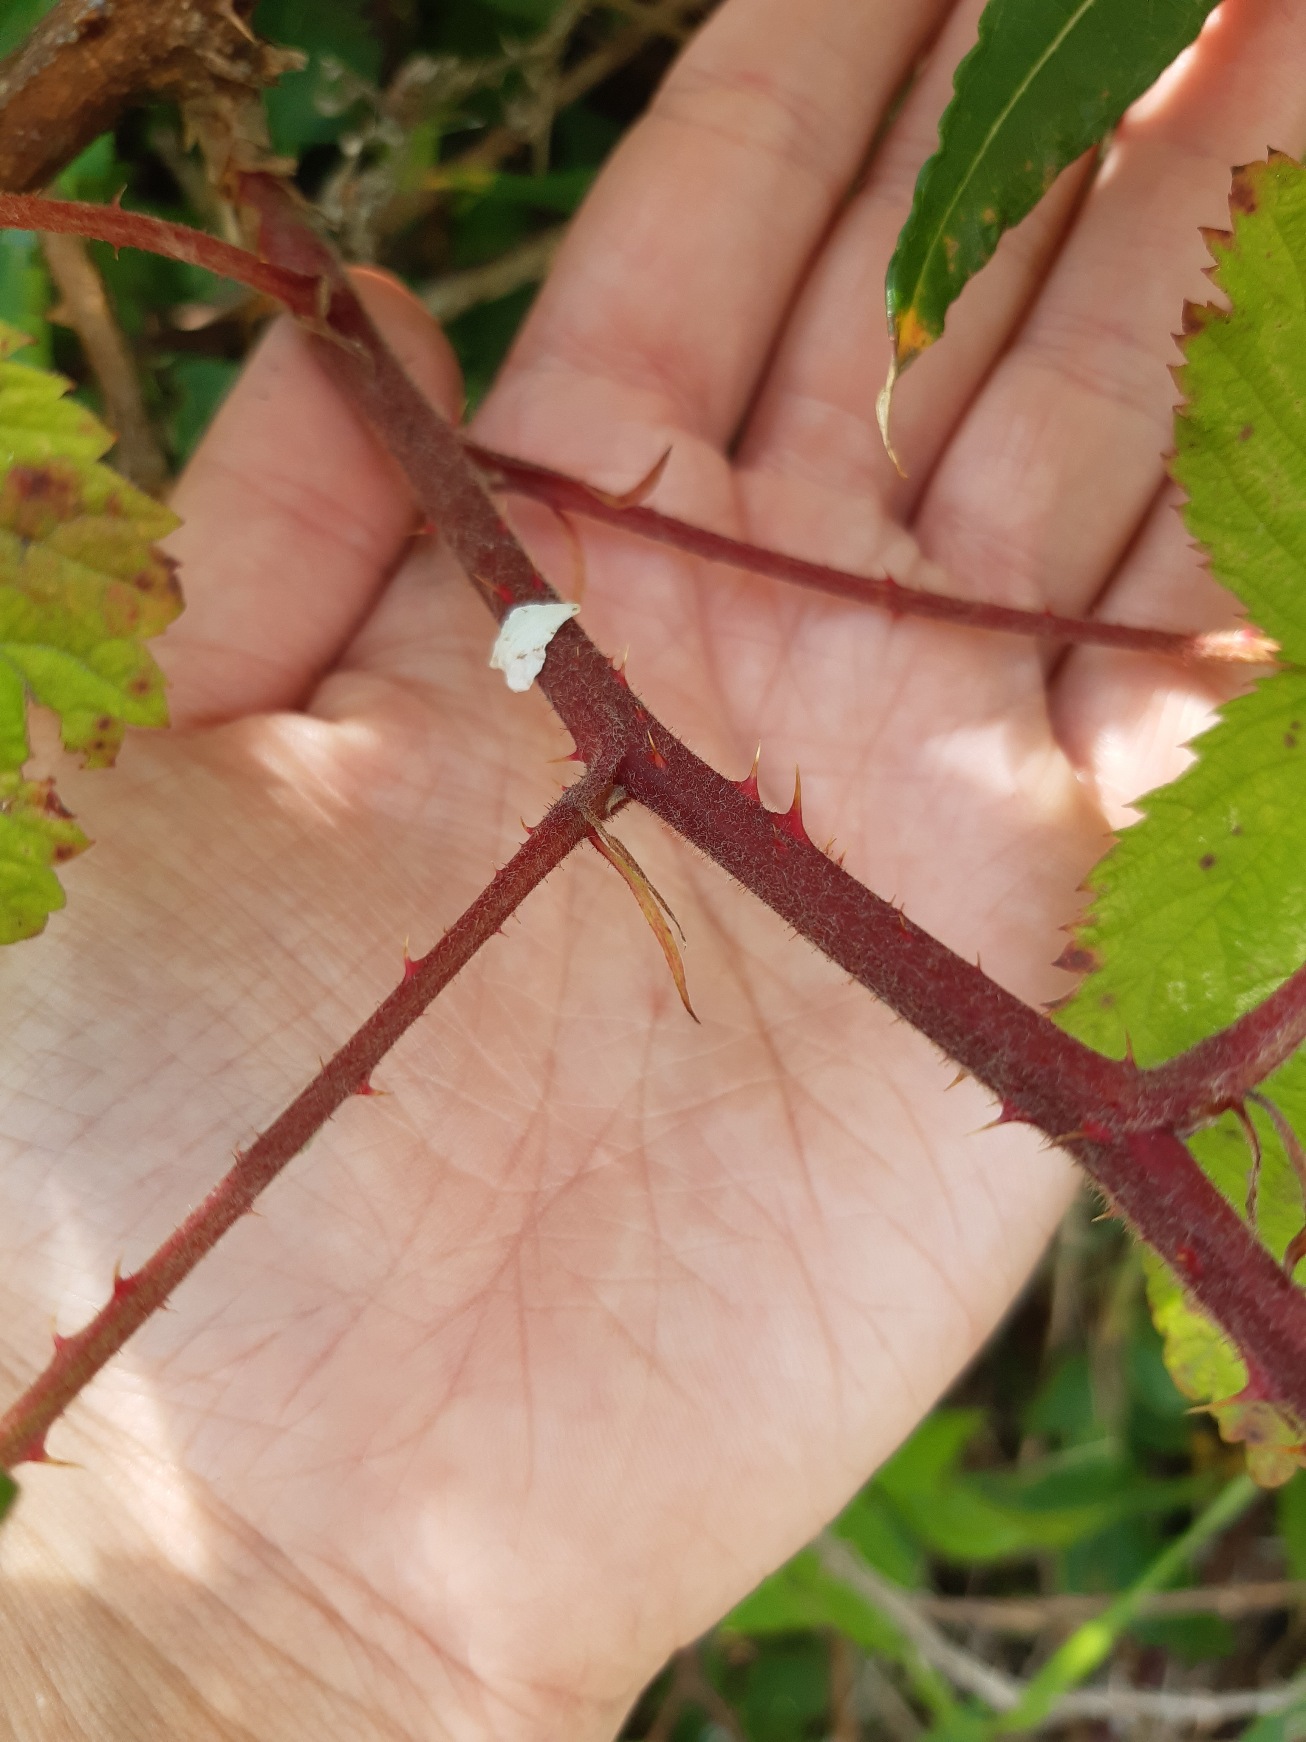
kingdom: Plantae
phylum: Tracheophyta
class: Magnoliopsida
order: Rosales
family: Rosaceae
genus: Rubus
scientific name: Rubus radula
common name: Rasperu brombær
